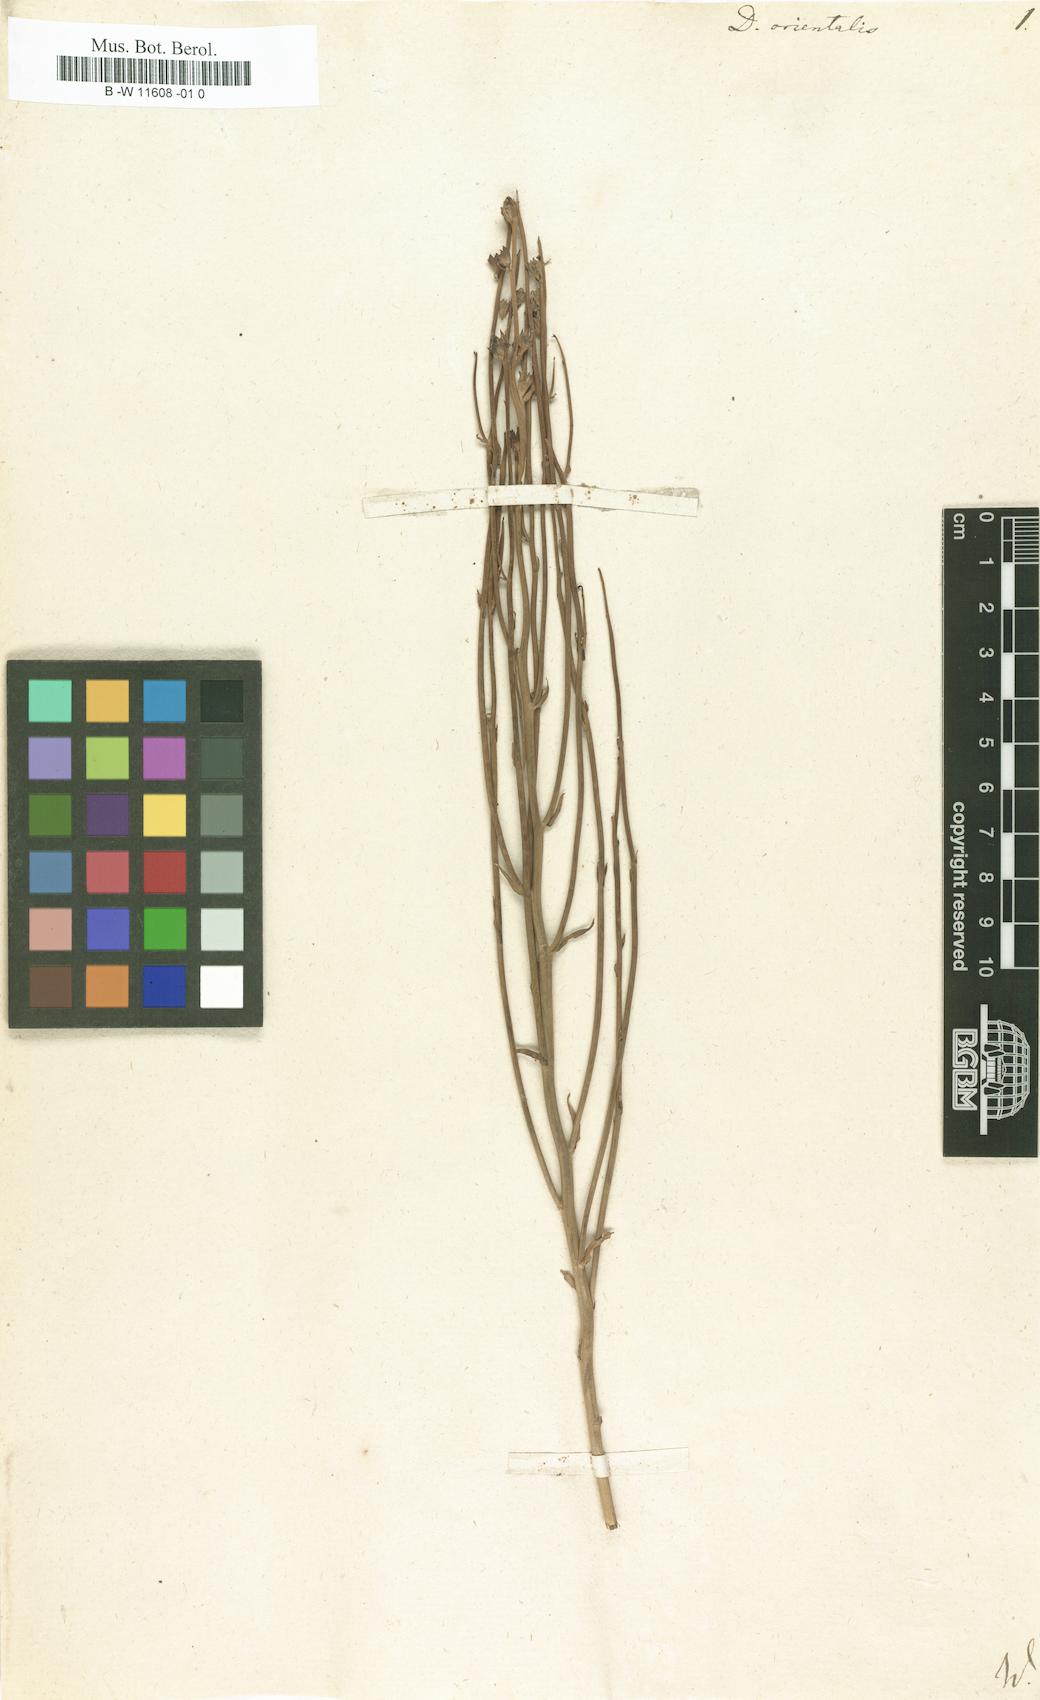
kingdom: Plantae
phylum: Tracheophyta
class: Magnoliopsida
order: Lamiales
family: Mazaceae
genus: Dodartia
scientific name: Dodartia orientalis
